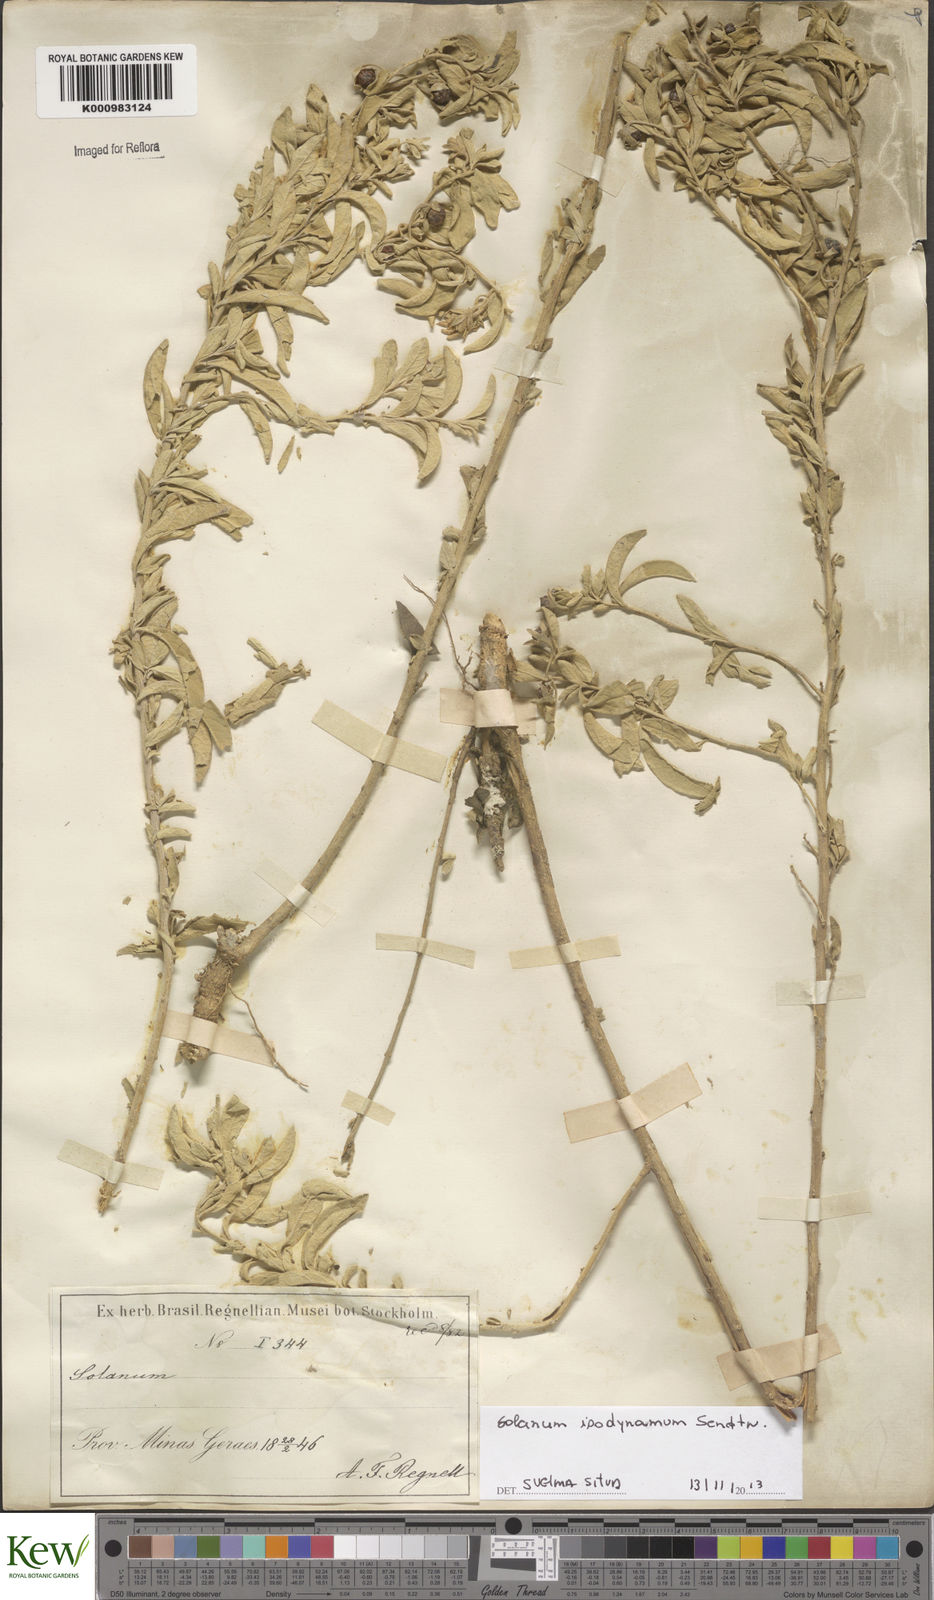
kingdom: Plantae
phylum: Tracheophyta
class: Magnoliopsida
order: Solanales
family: Solanaceae
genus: Solanum
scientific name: Solanum isodynamum
